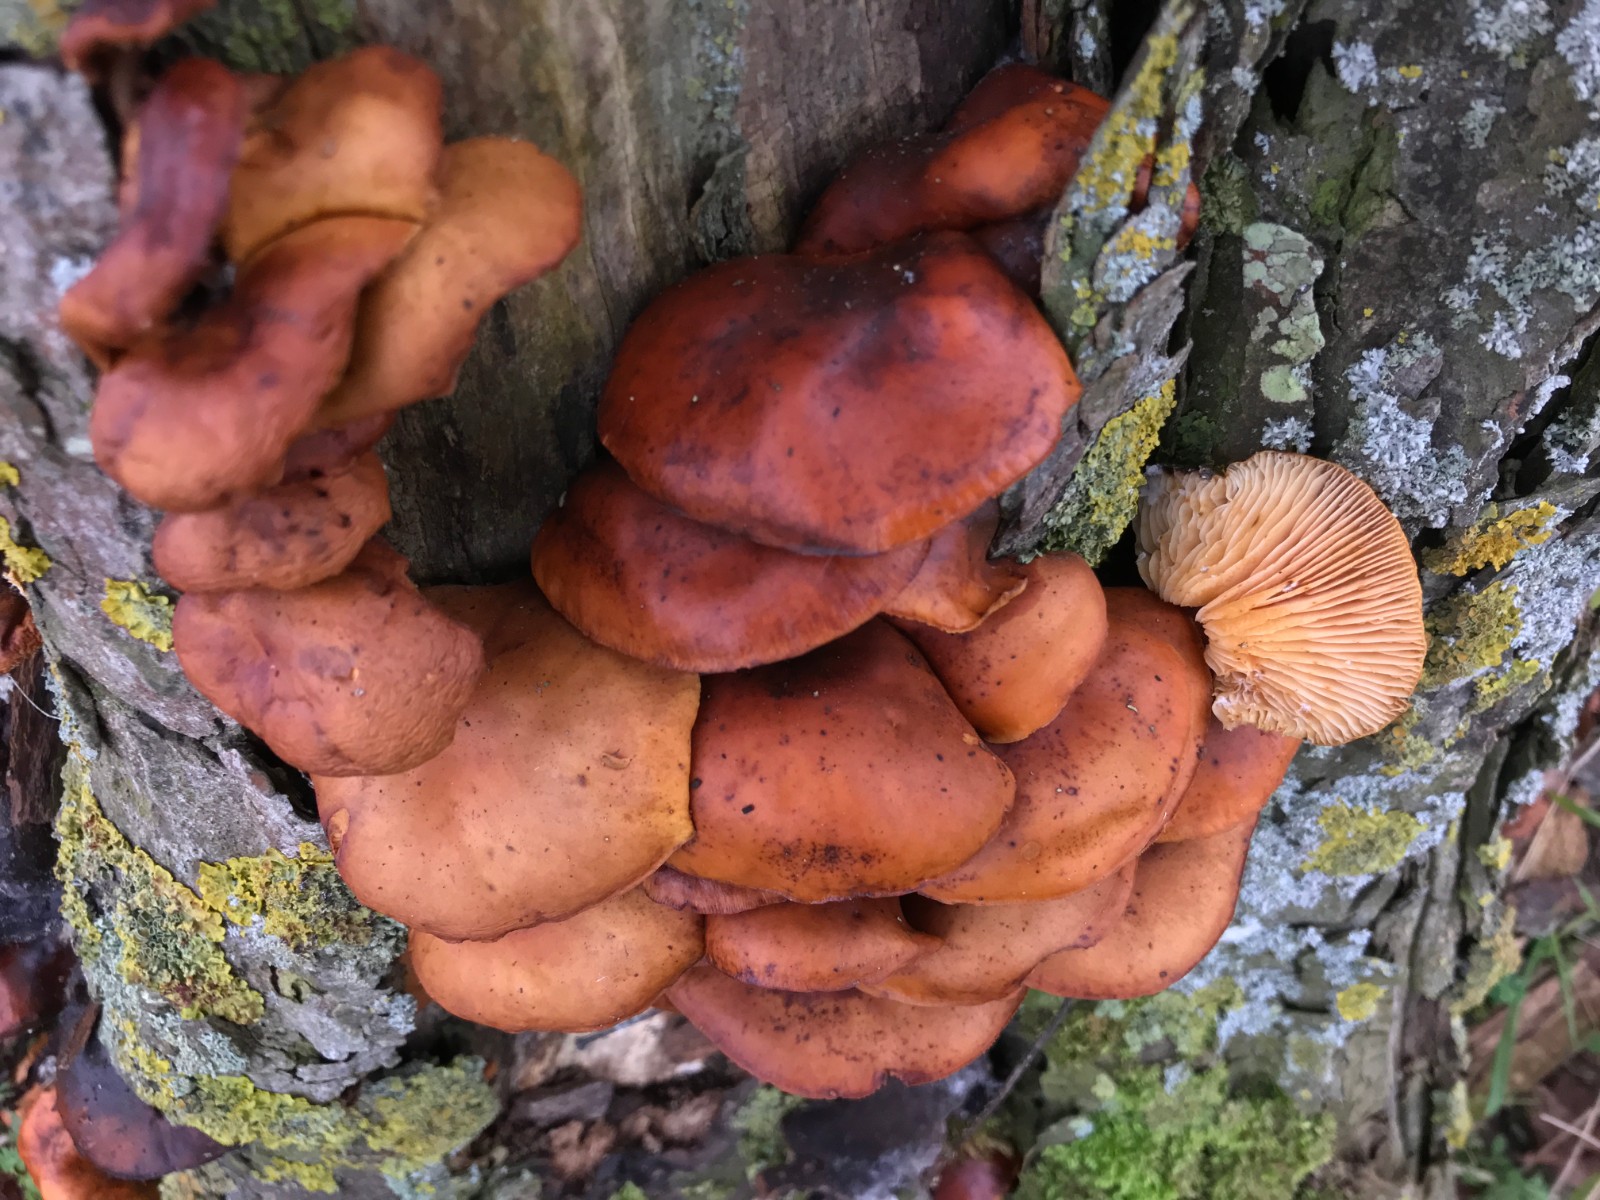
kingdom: Fungi
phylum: Basidiomycota
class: Agaricomycetes
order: Agaricales
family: Physalacriaceae
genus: Flammulina
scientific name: Flammulina velutipes
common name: gul fløjlsfod
